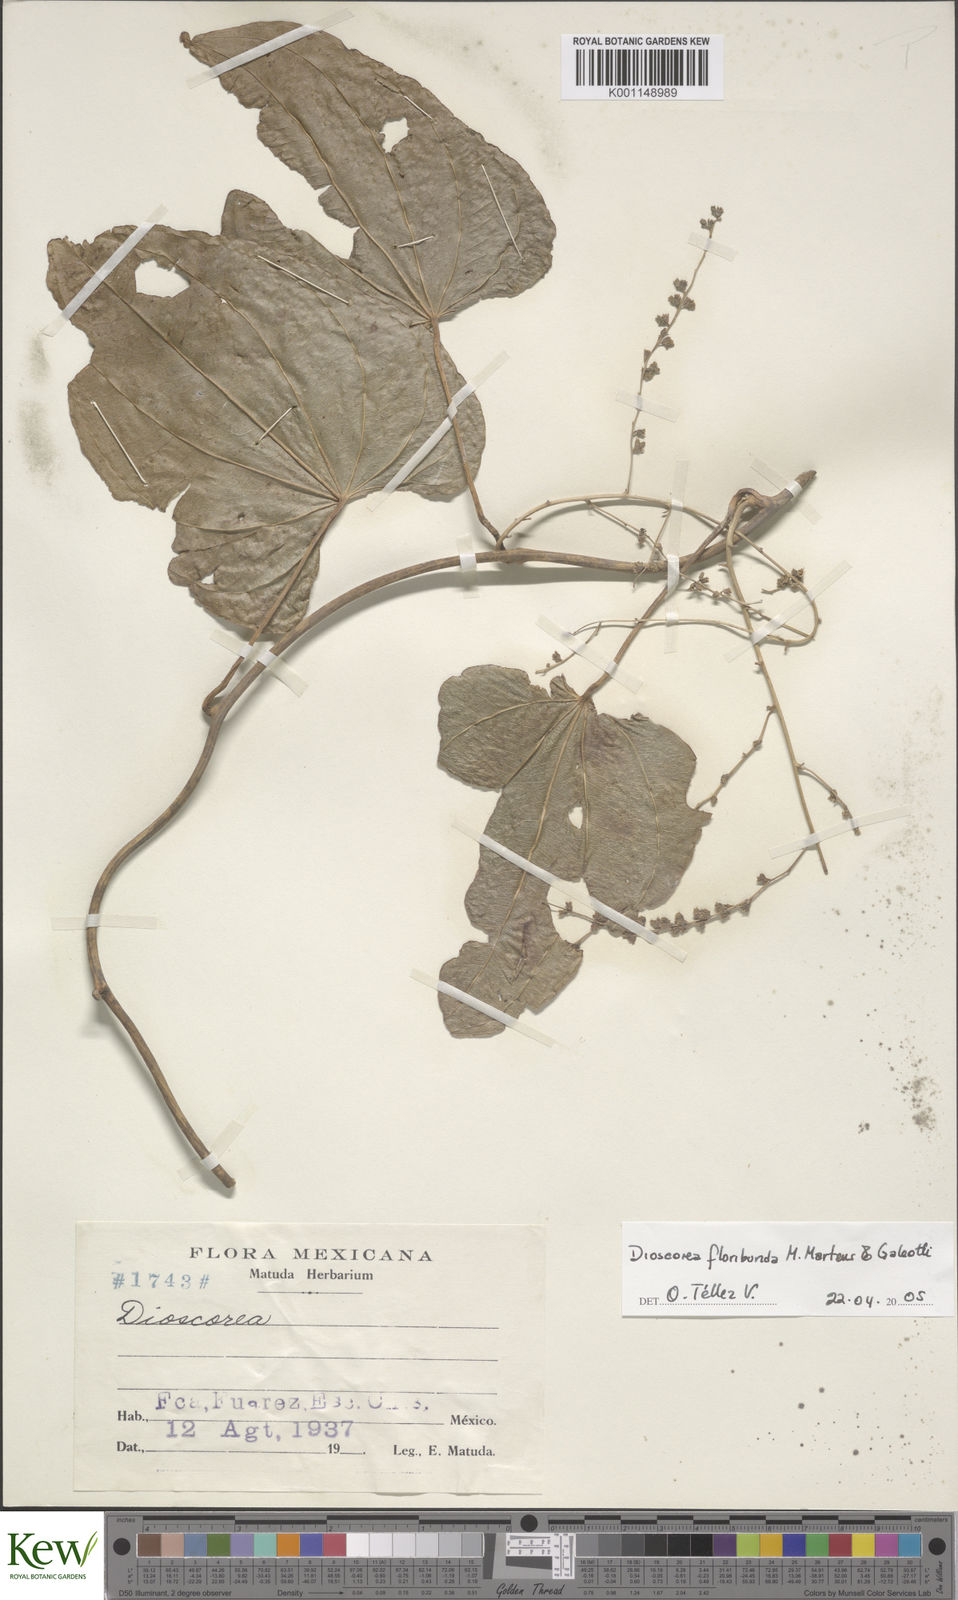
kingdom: Plantae
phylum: Tracheophyta
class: Liliopsida
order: Dioscoreales
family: Dioscoreaceae
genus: Dioscorea
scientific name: Dioscorea floribunda
